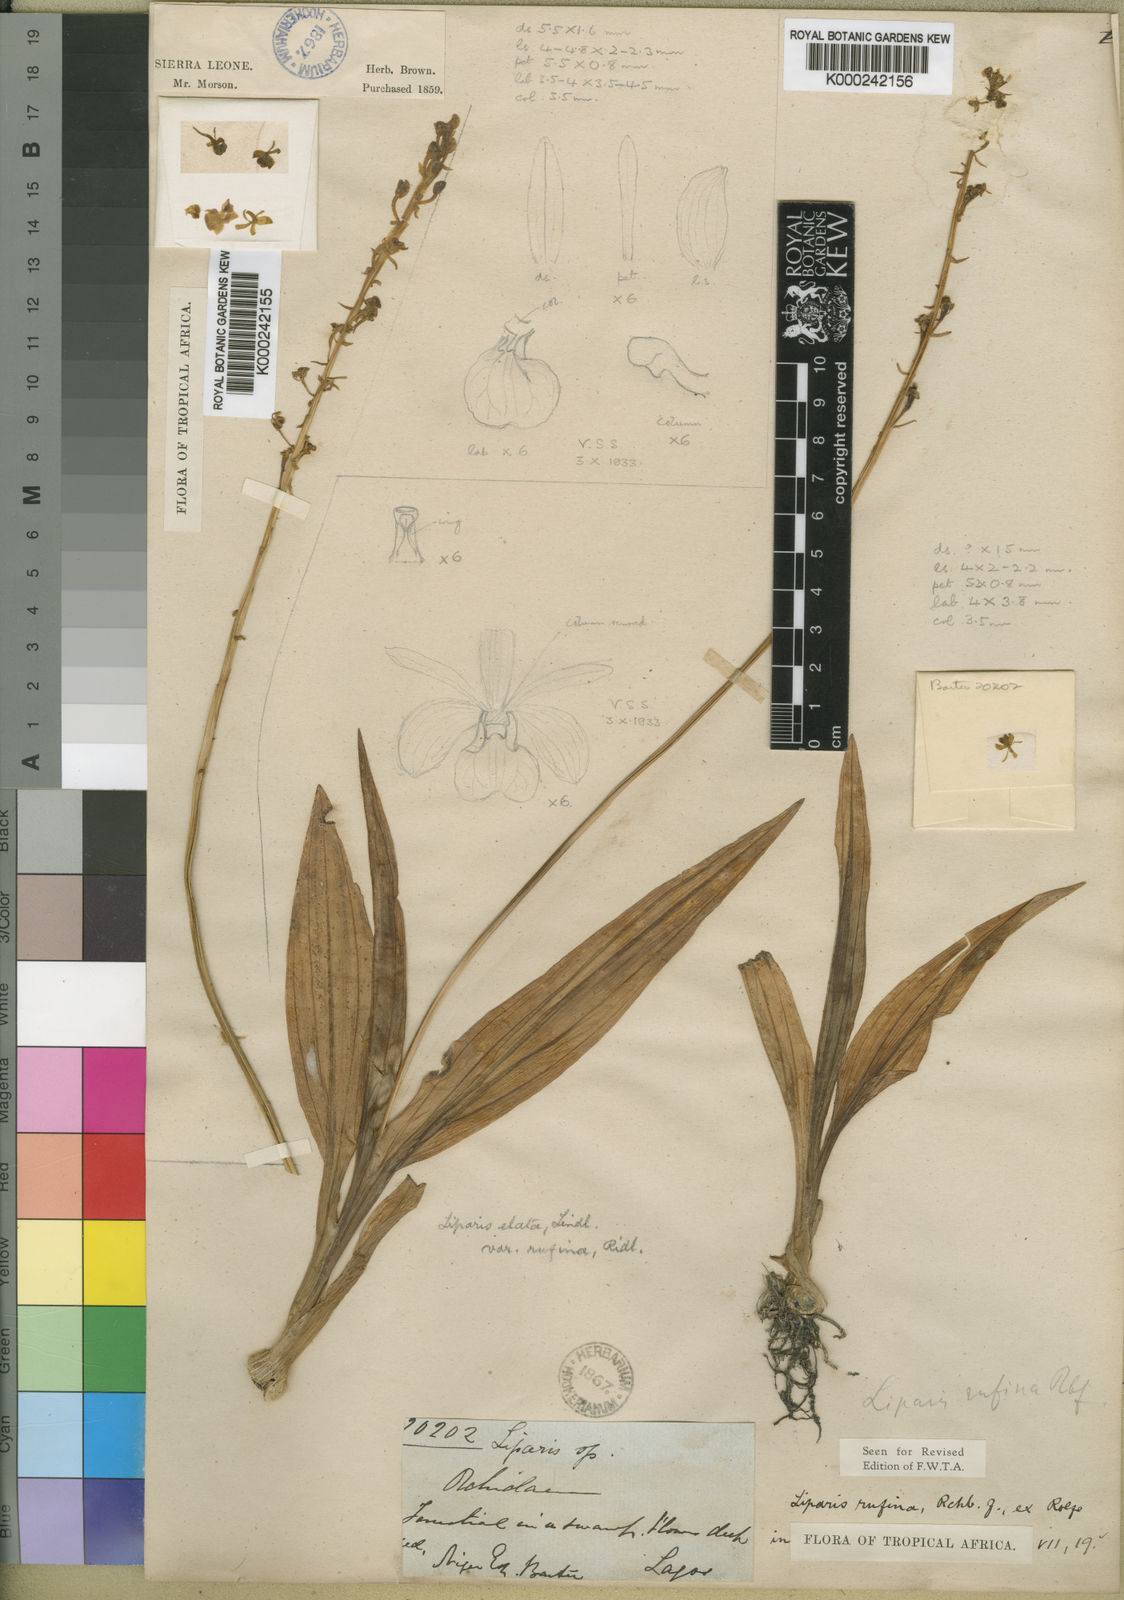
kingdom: Plantae
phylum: Tracheophyta
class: Liliopsida
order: Asparagales
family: Orchidaceae
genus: Liparis
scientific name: Liparis nervosa
